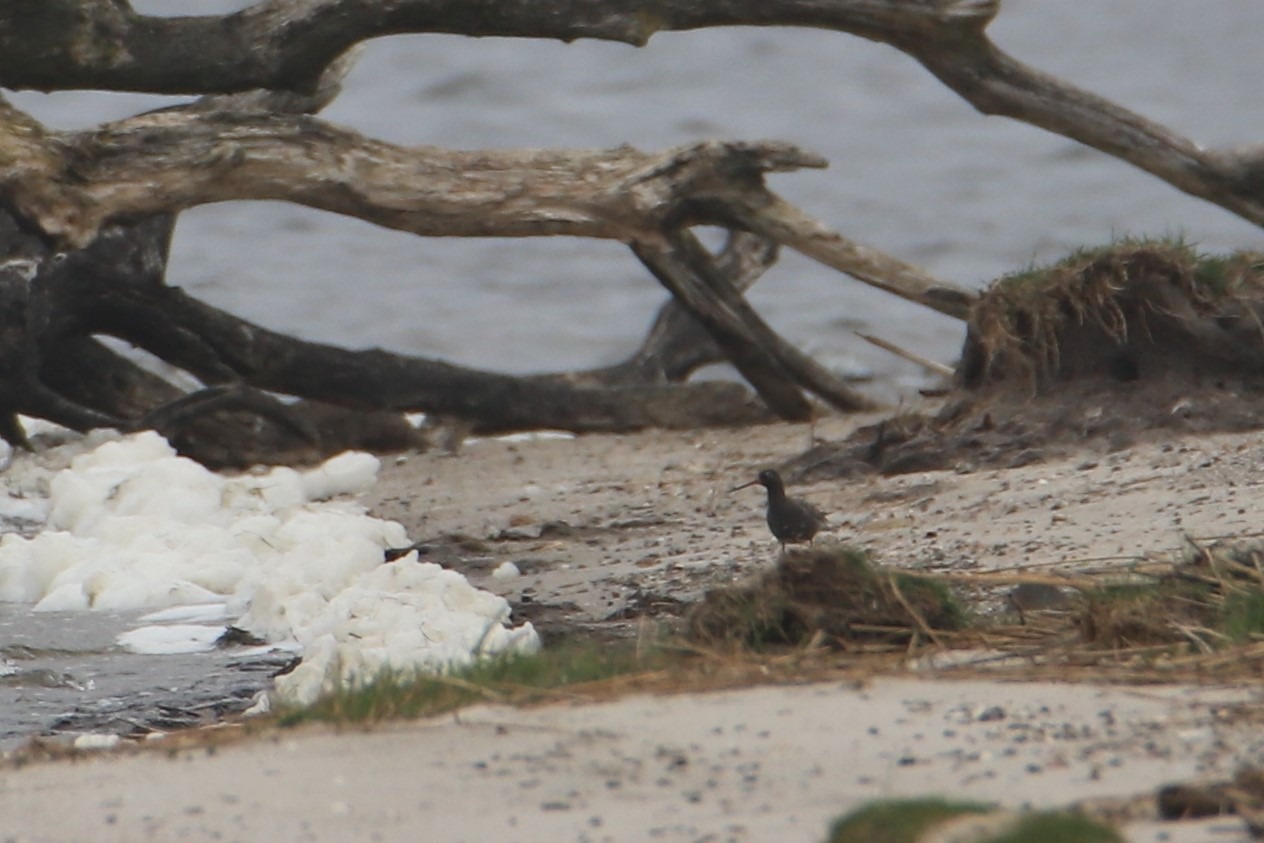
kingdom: Animalia
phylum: Chordata
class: Aves
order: Charadriiformes
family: Scolopacidae
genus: Tringa
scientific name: Tringa erythropus
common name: Sortklire
